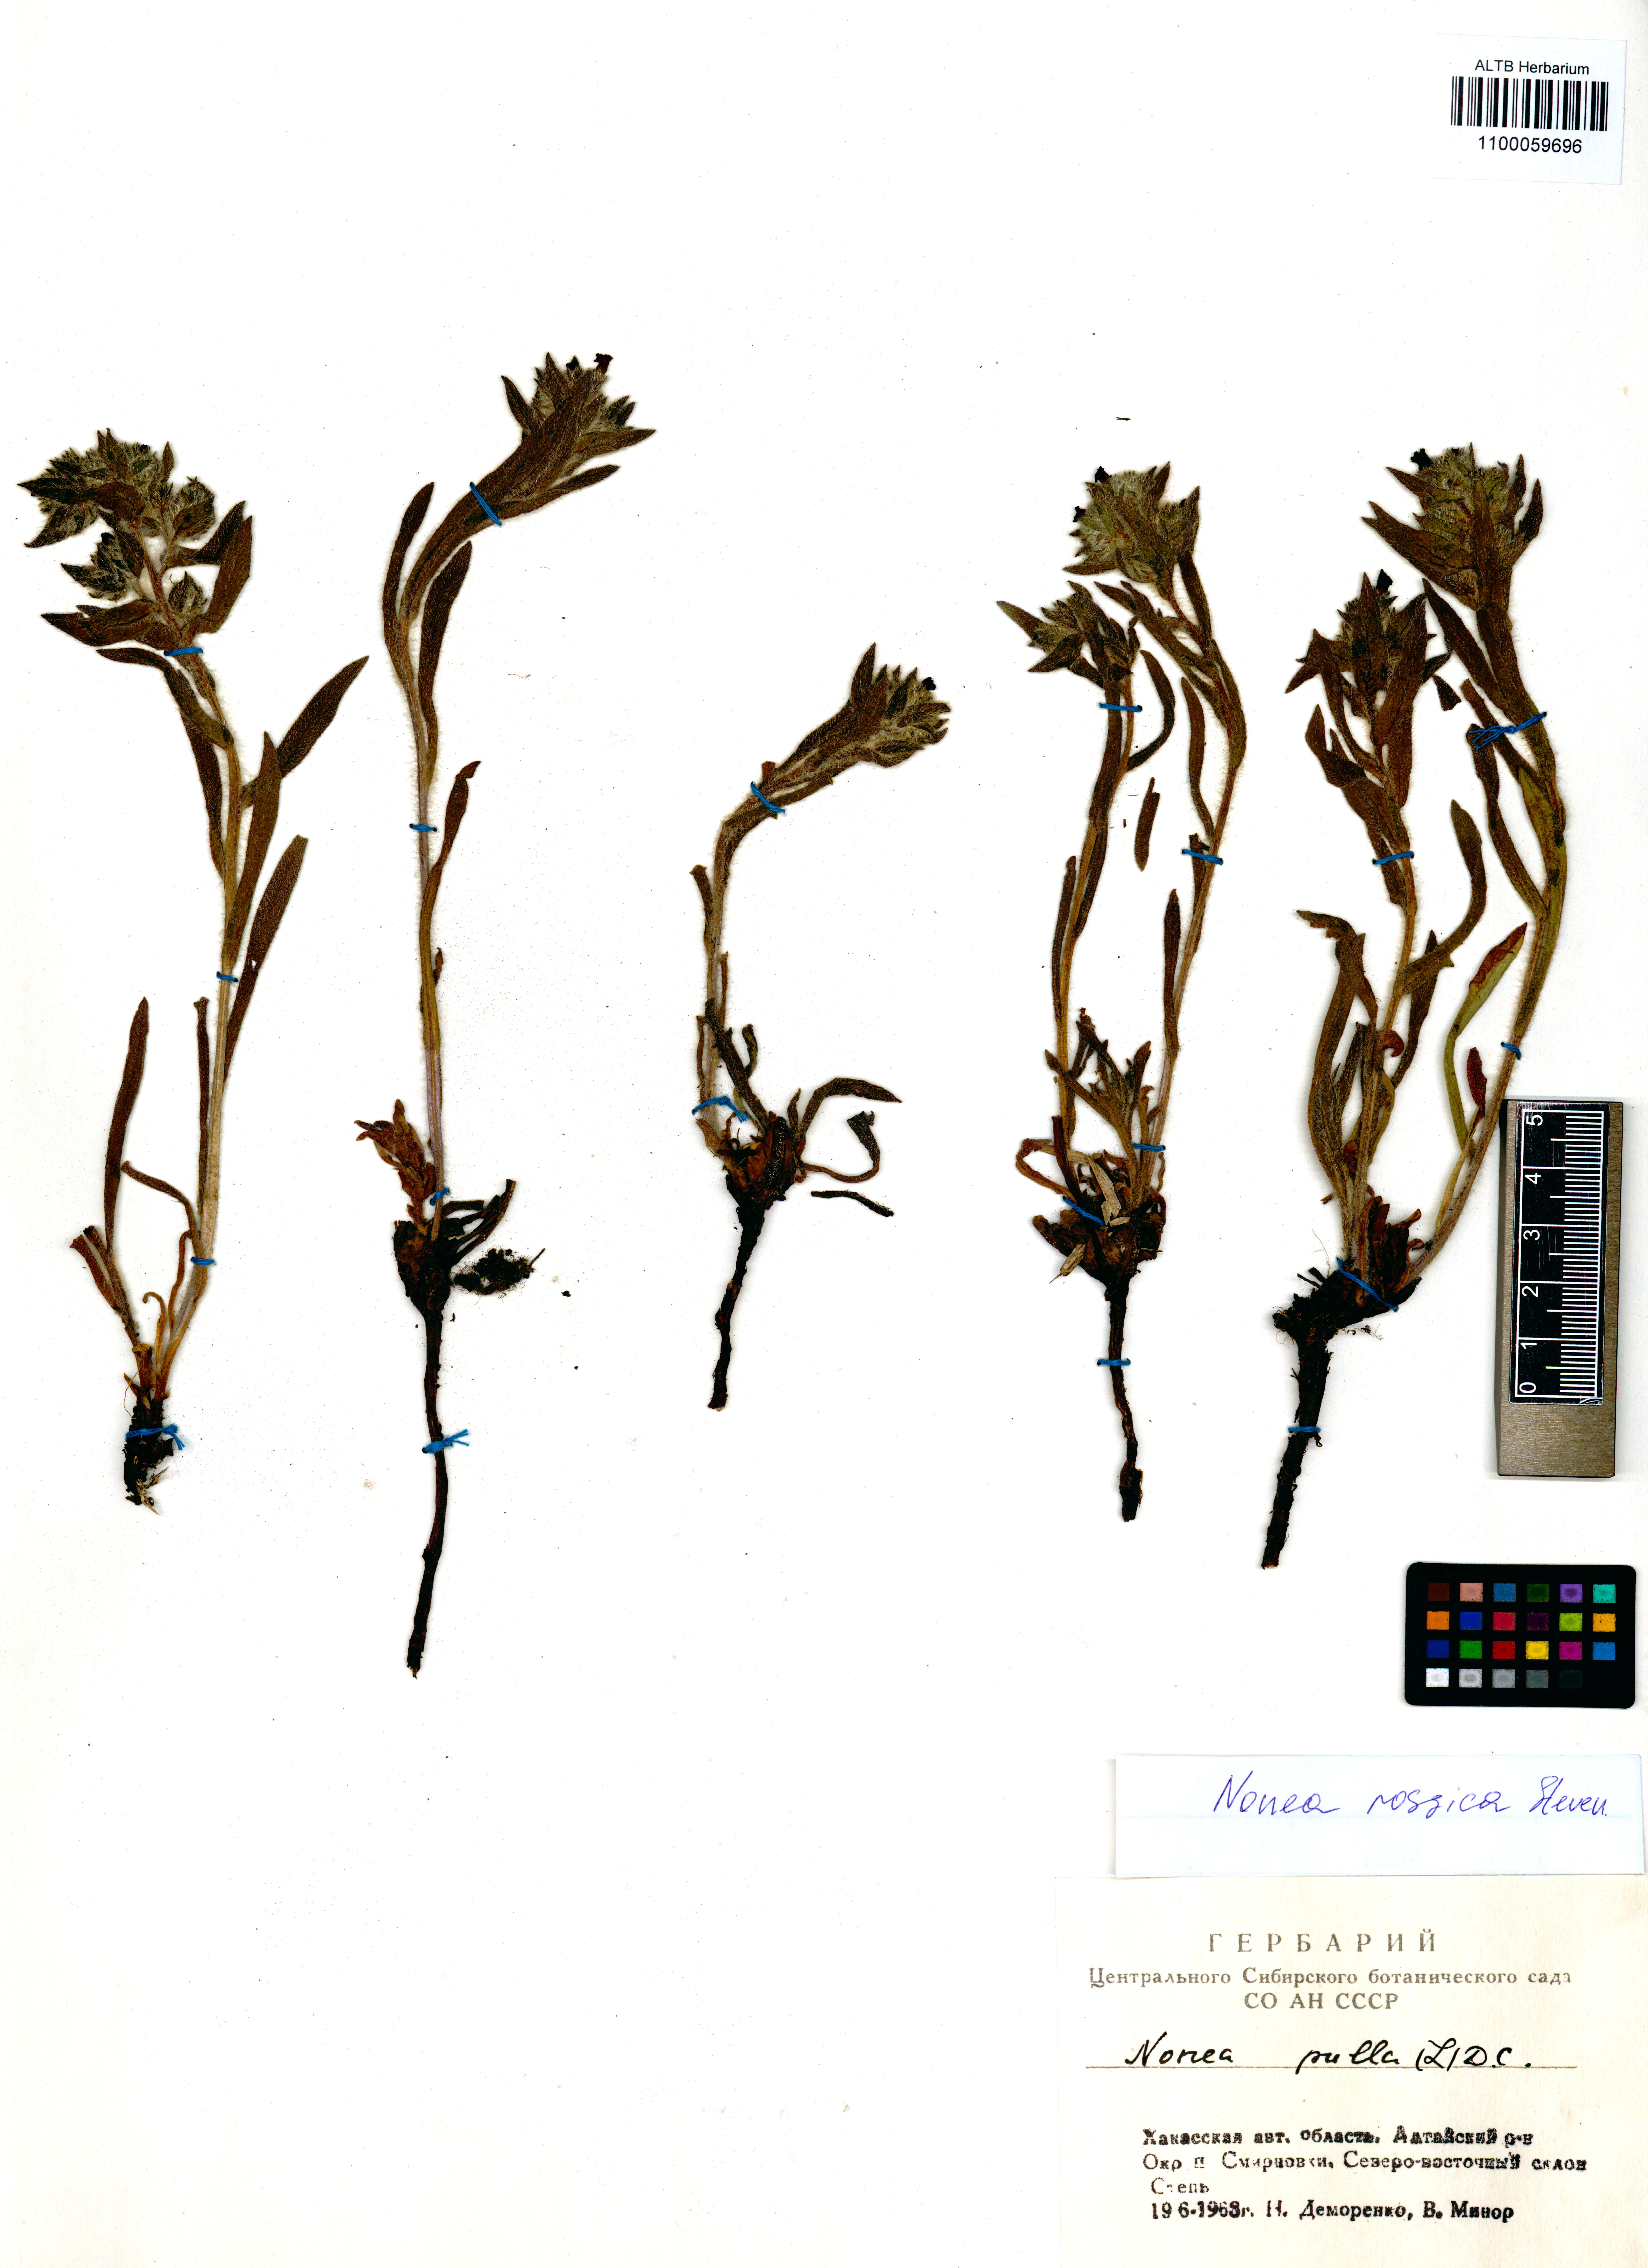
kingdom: Plantae
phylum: Tracheophyta
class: Magnoliopsida
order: Boraginales
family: Boraginaceae
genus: Nonea
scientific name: Nonea pulla
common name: Brown nonea
